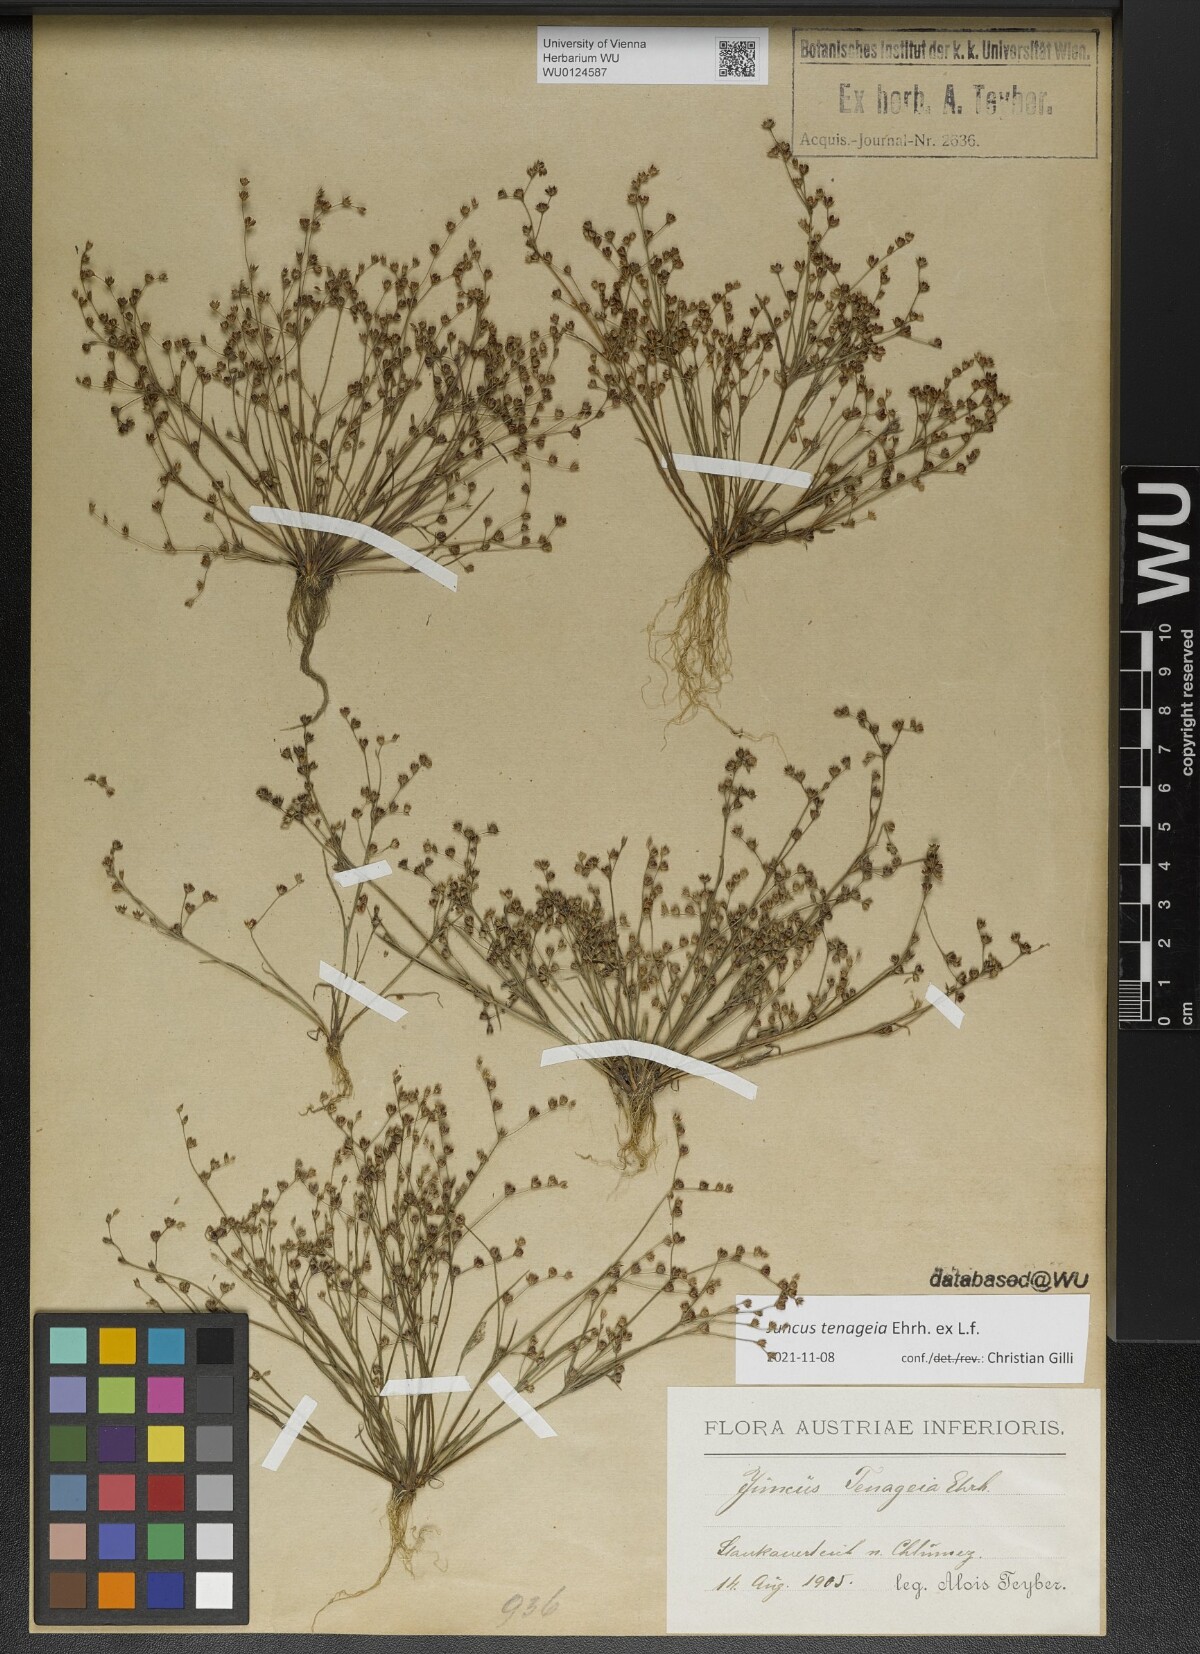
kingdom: Plantae
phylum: Tracheophyta
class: Liliopsida
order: Poales
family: Juncaceae
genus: Juncus
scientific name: Juncus tenageia
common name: Sand rush
